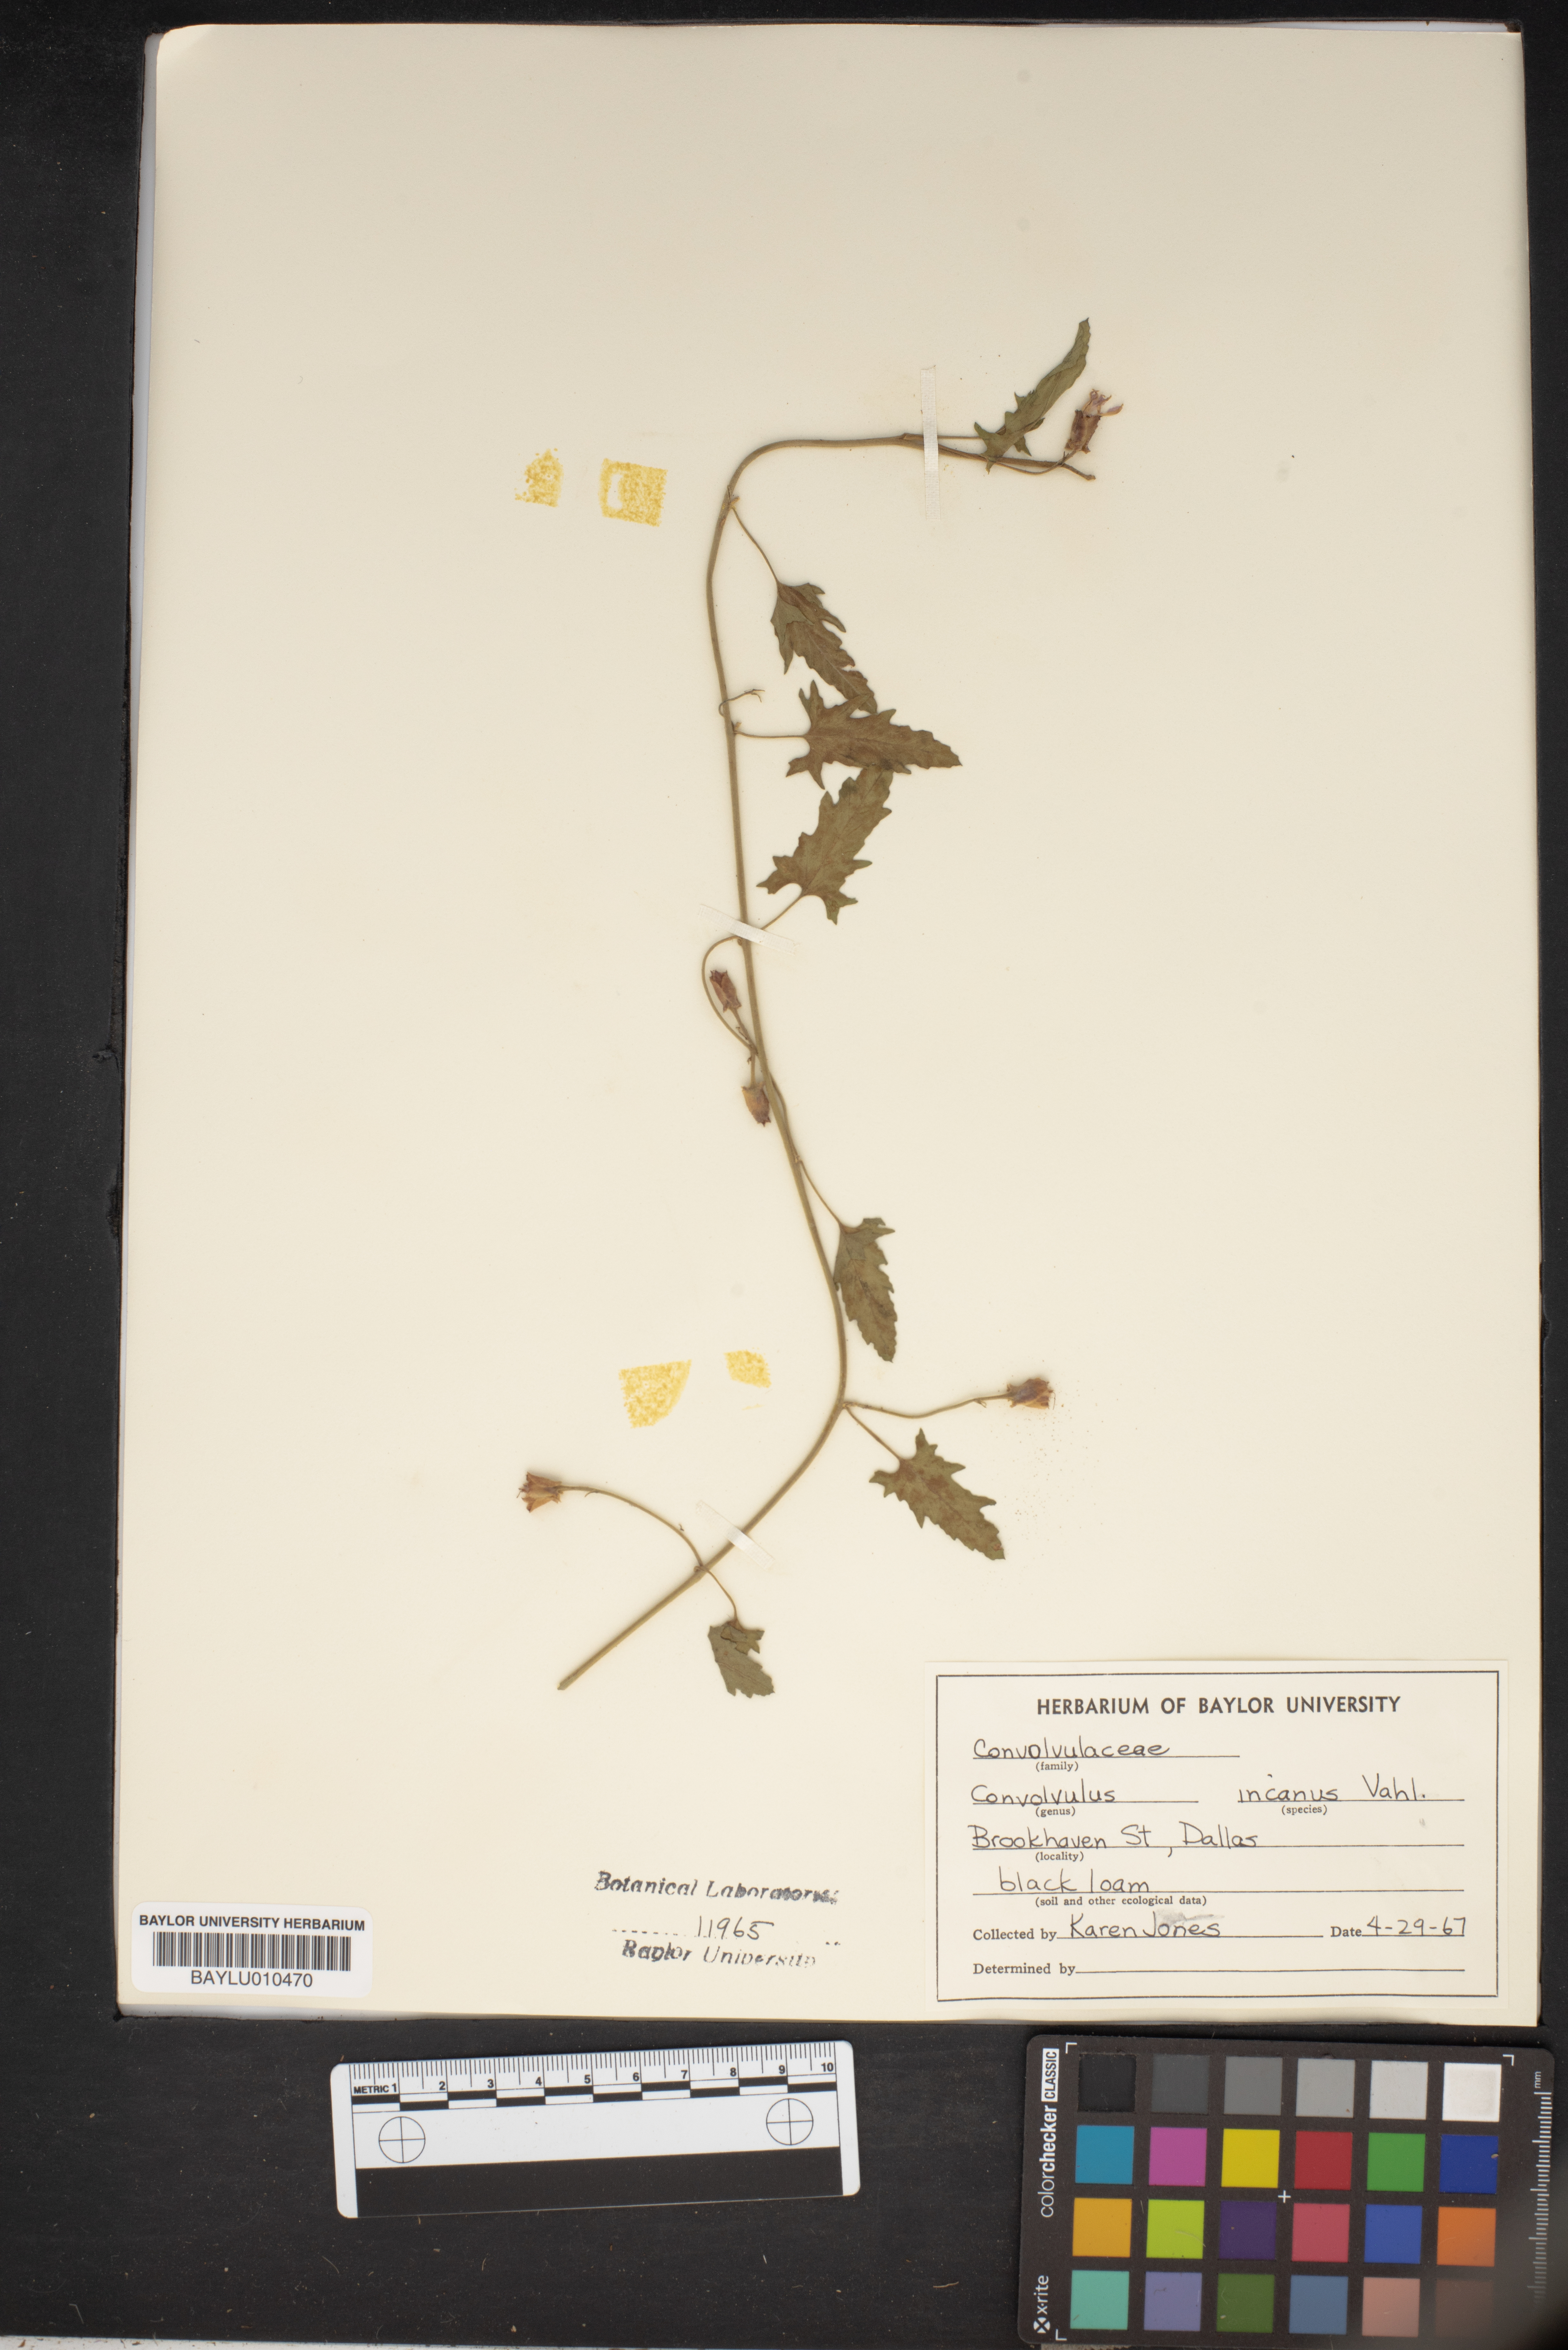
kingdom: Plantae
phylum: Tracheophyta
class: Magnoliopsida
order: Solanales
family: Convolvulaceae
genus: Convolvulus
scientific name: Convolvulus hermanniae
